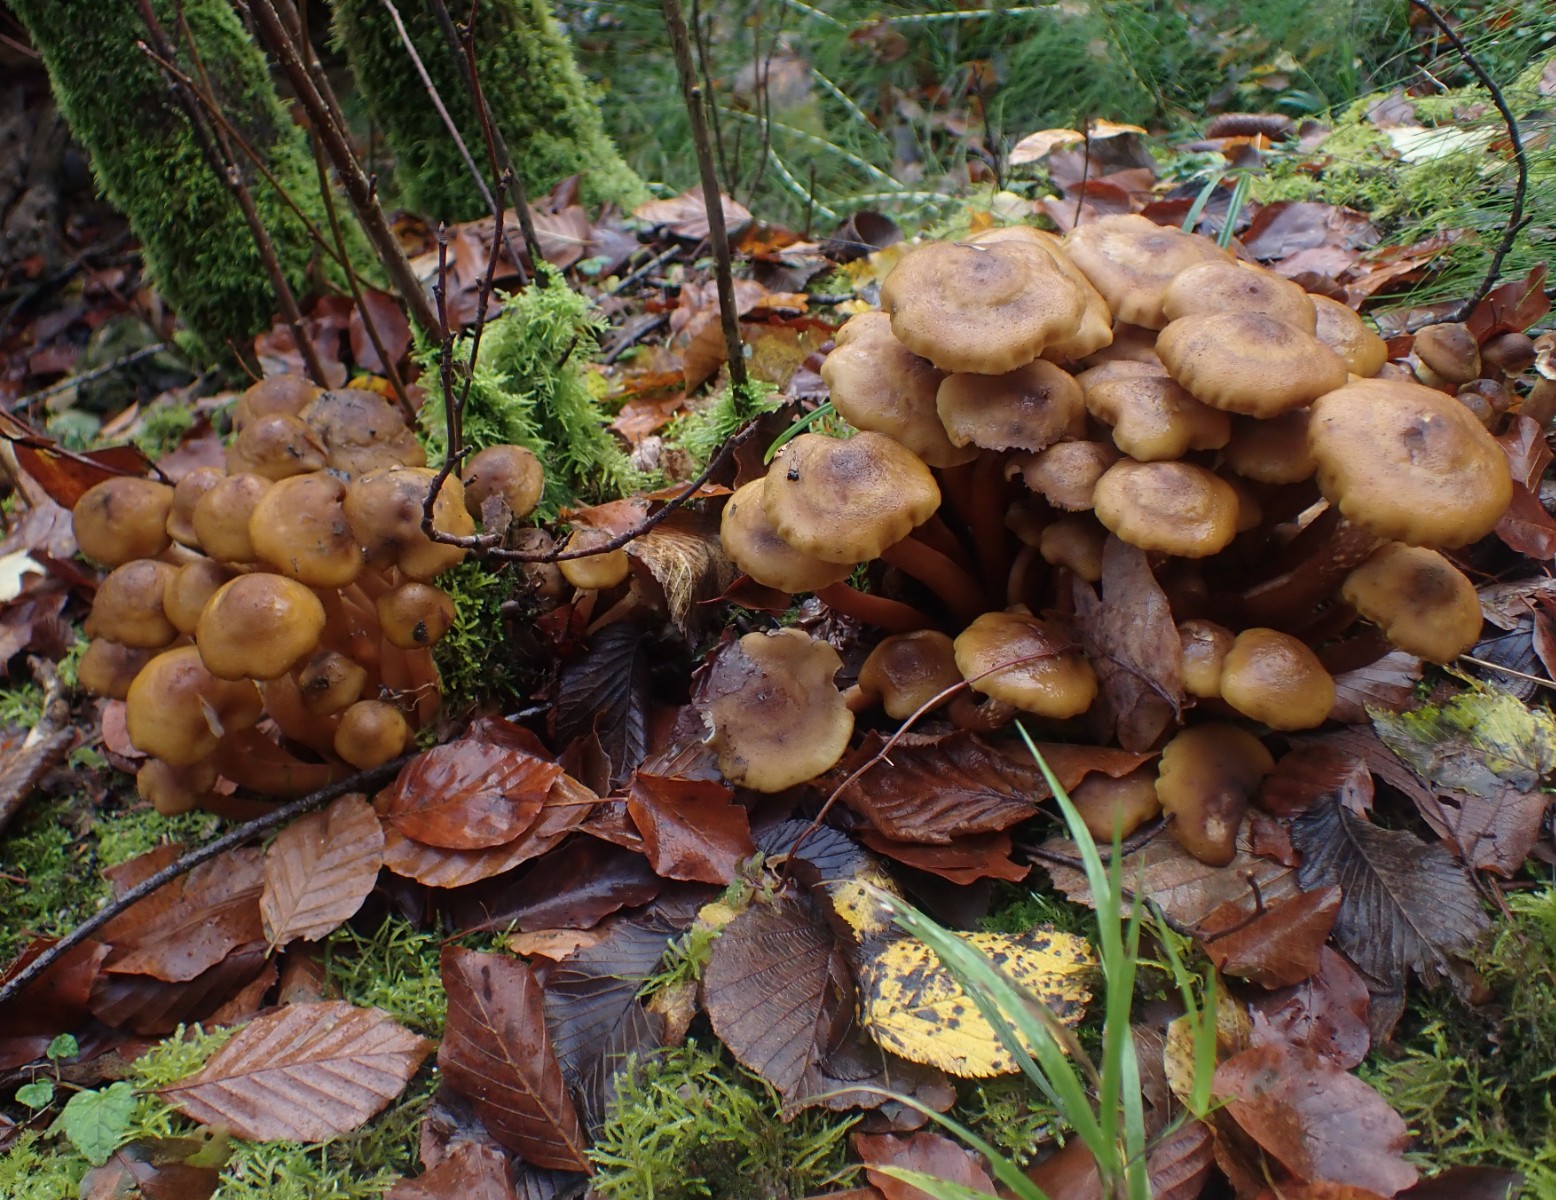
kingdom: Fungi
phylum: Basidiomycota
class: Agaricomycetes
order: Agaricales
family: Physalacriaceae
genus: Armillaria
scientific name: Armillaria mellea
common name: ægte honningsvamp
